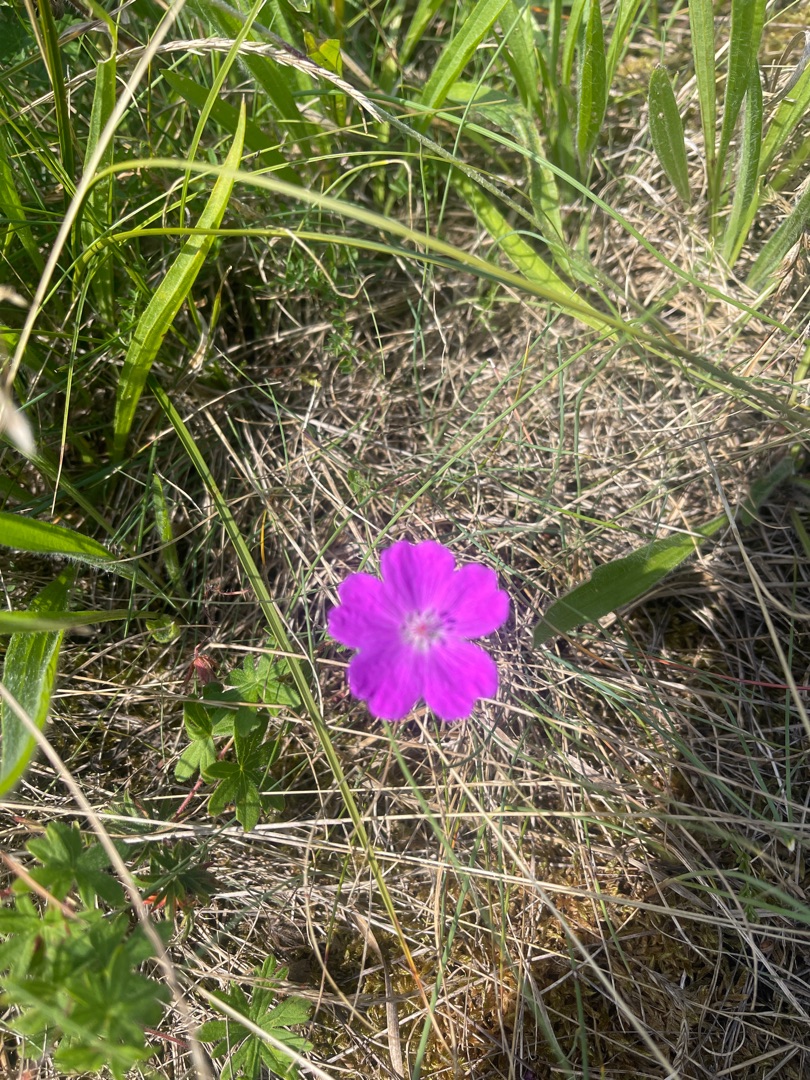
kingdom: Plantae
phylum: Tracheophyta
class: Magnoliopsida
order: Geraniales
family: Geraniaceae
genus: Geranium
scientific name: Geranium sanguineum
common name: Blodrød storkenæb
